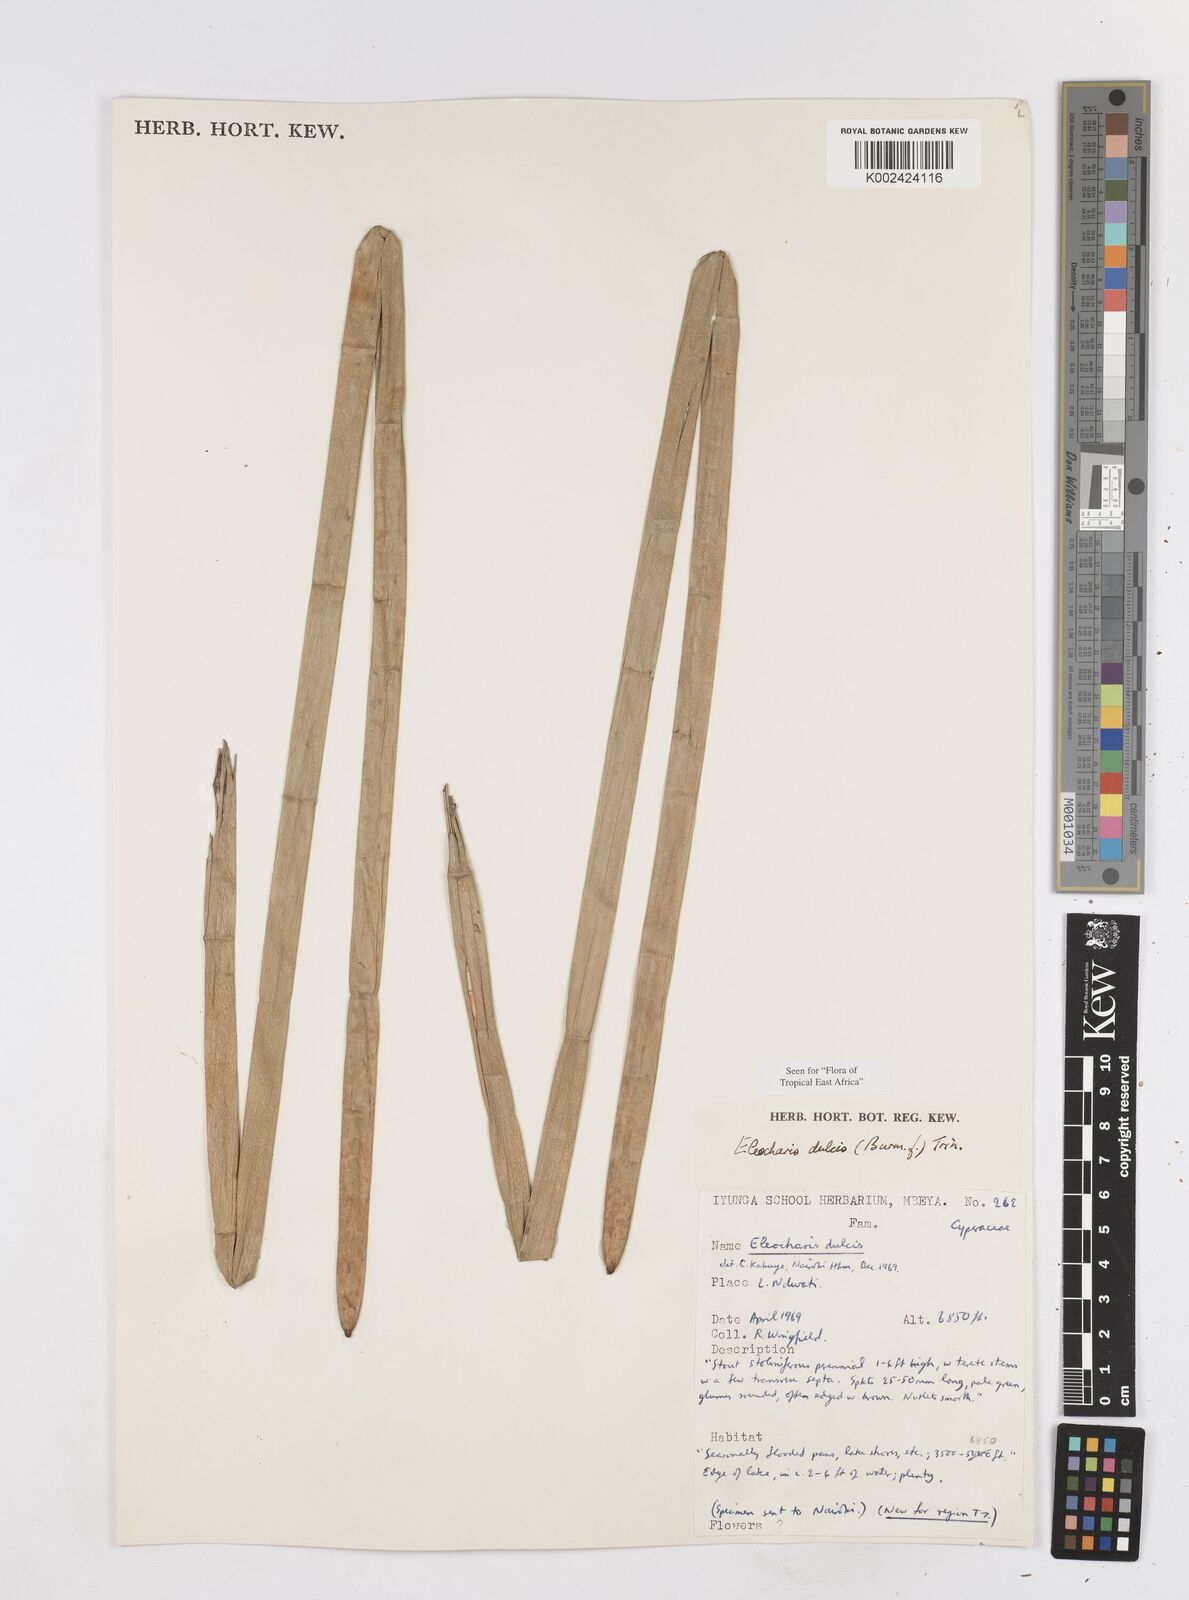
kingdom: Plantae
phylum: Tracheophyta
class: Liliopsida
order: Poales
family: Cyperaceae
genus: Eleocharis
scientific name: Eleocharis dulcis
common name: Chinese water chestnut
